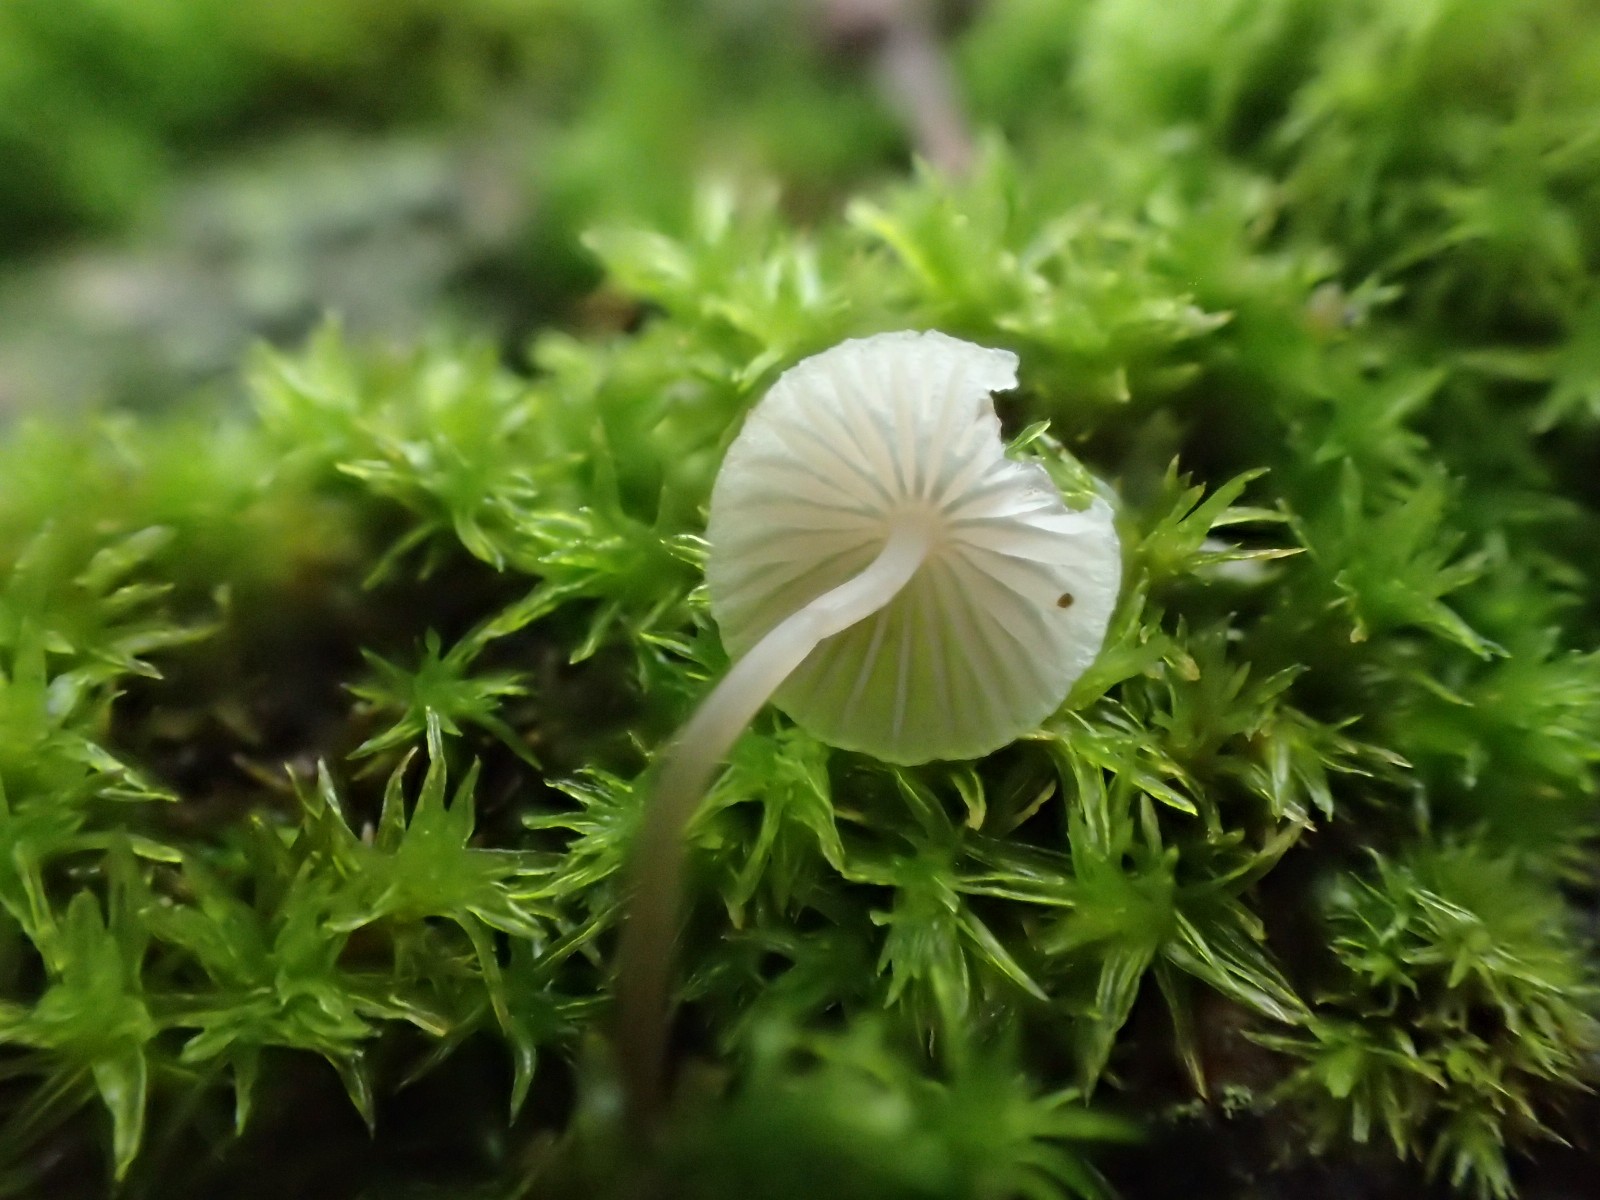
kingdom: Fungi
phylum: Basidiomycota
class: Agaricomycetes
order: Agaricales
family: Porotheleaceae
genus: Phloeomana
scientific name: Phloeomana hiemalis
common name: sen huesvamp
